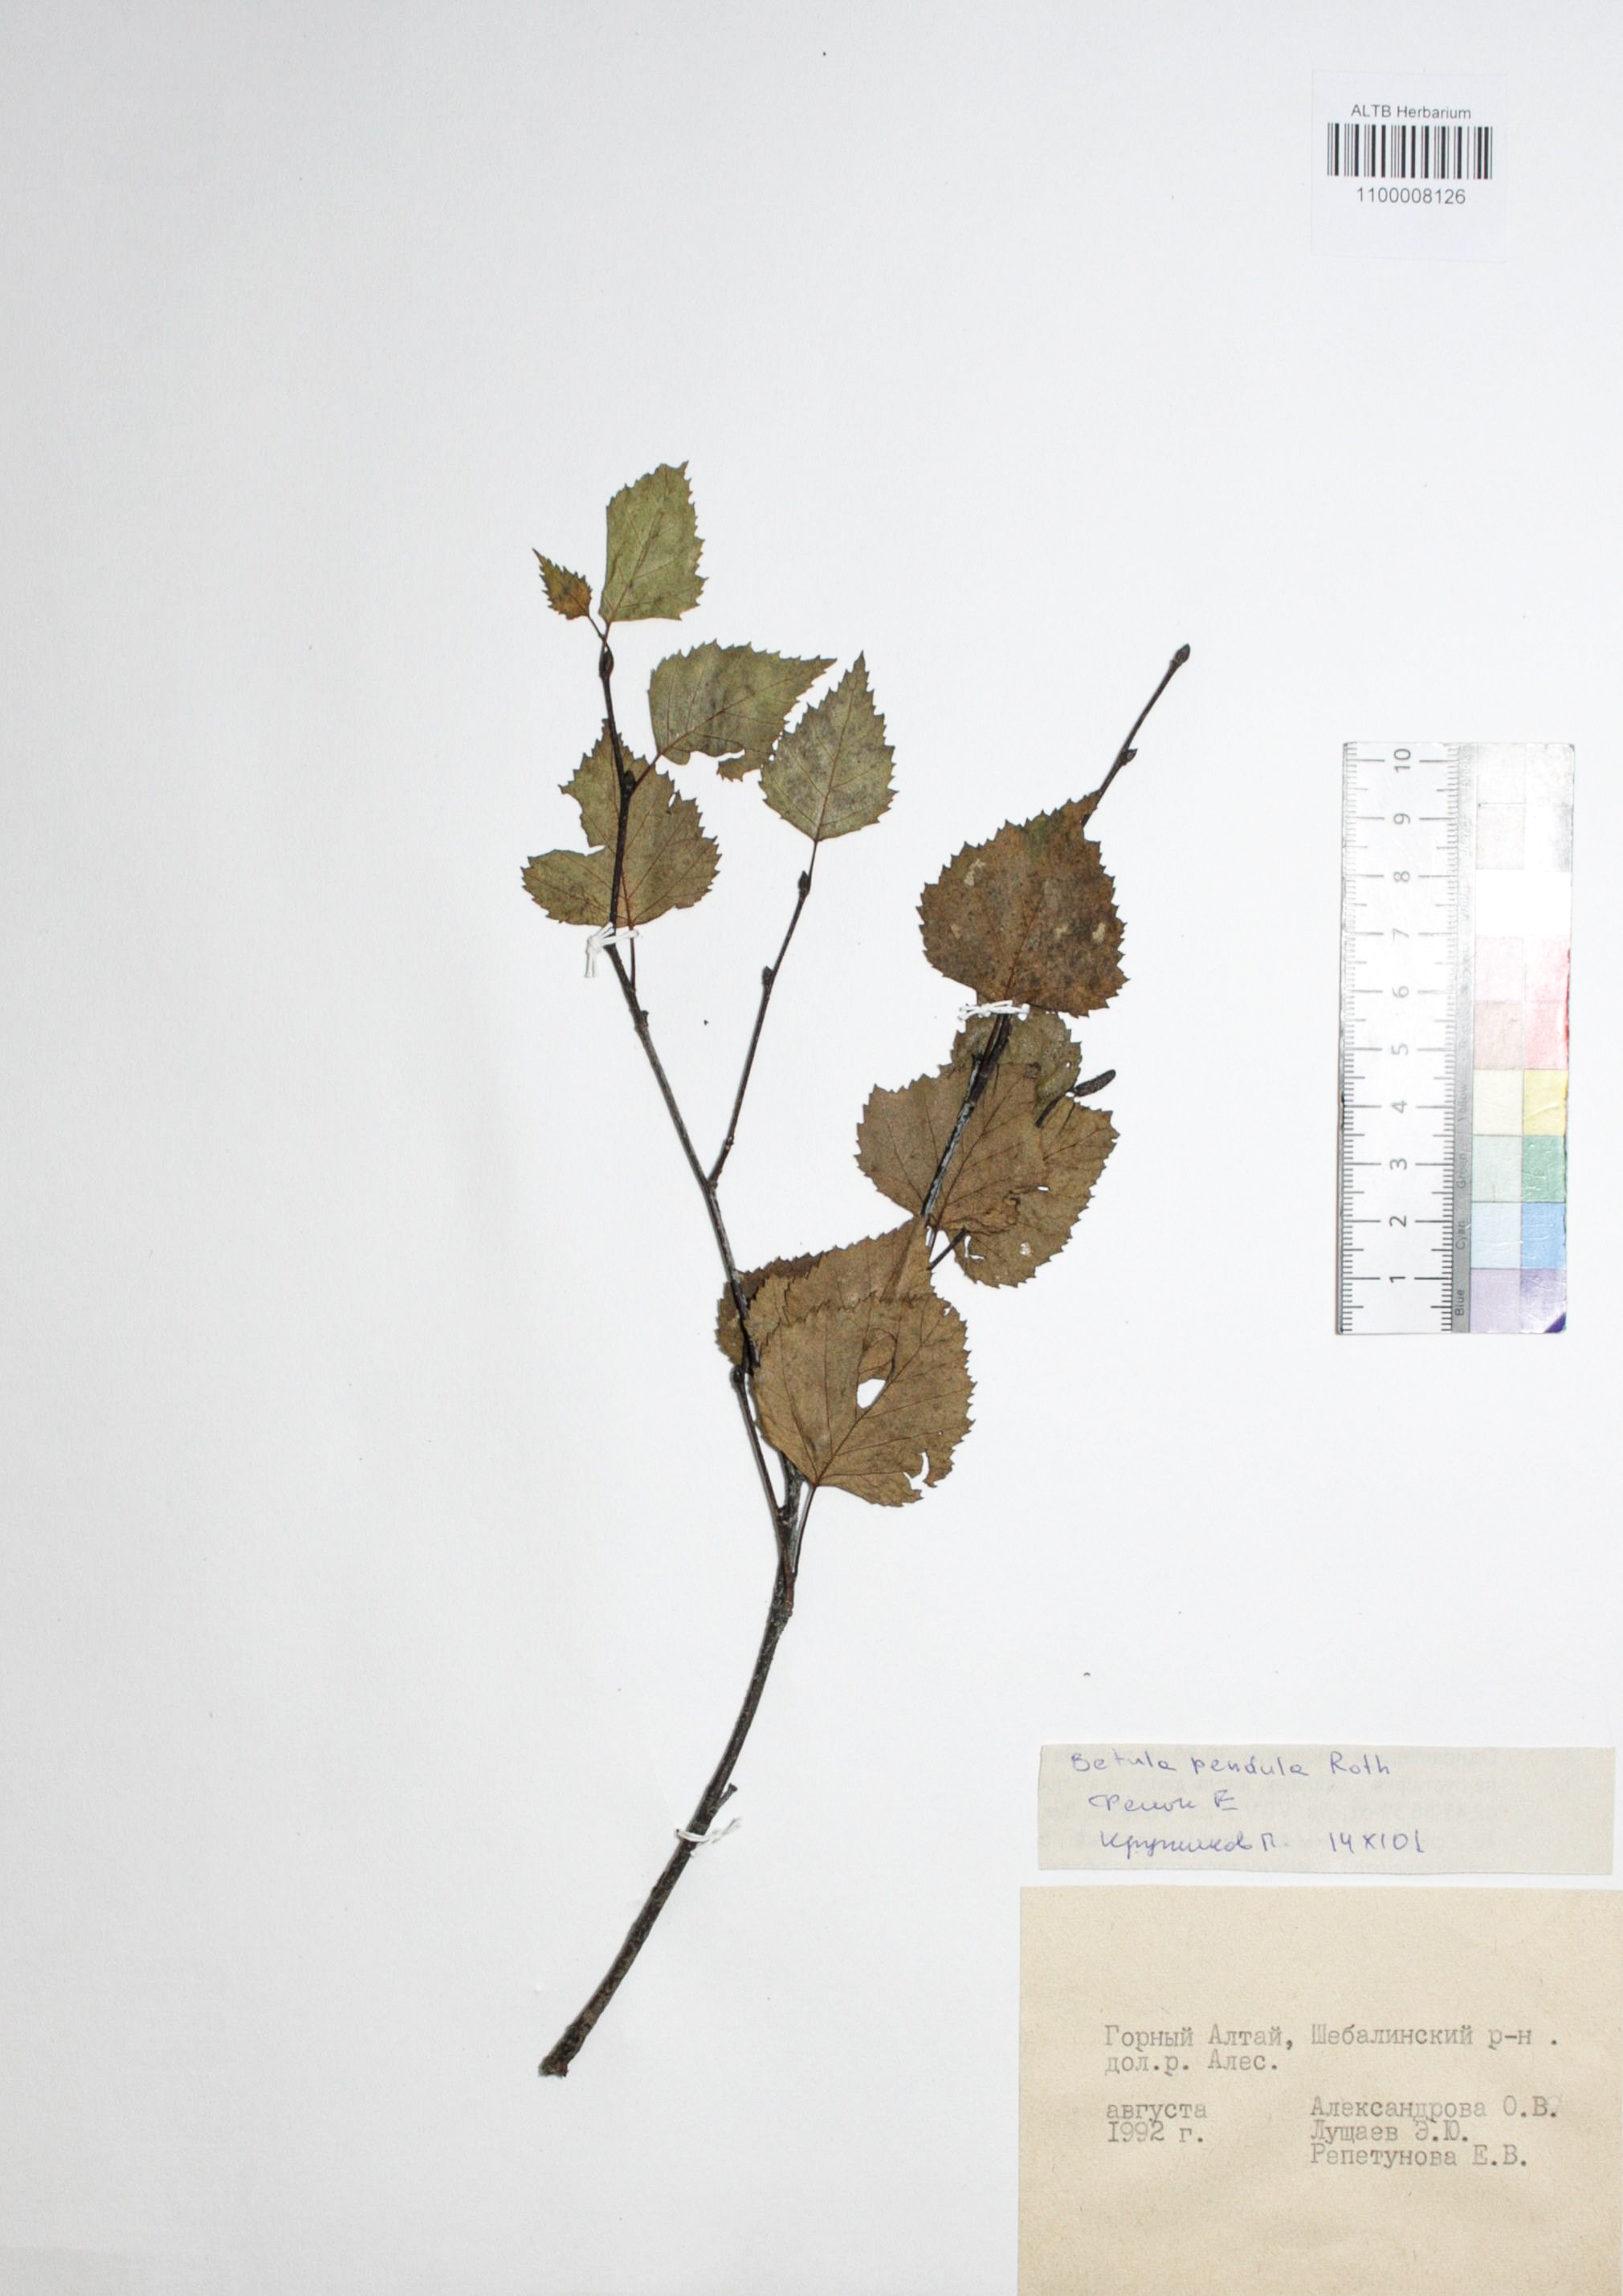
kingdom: Plantae
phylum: Tracheophyta
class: Magnoliopsida
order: Fagales
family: Betulaceae
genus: Betula
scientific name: Betula pendula
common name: Silver birch
